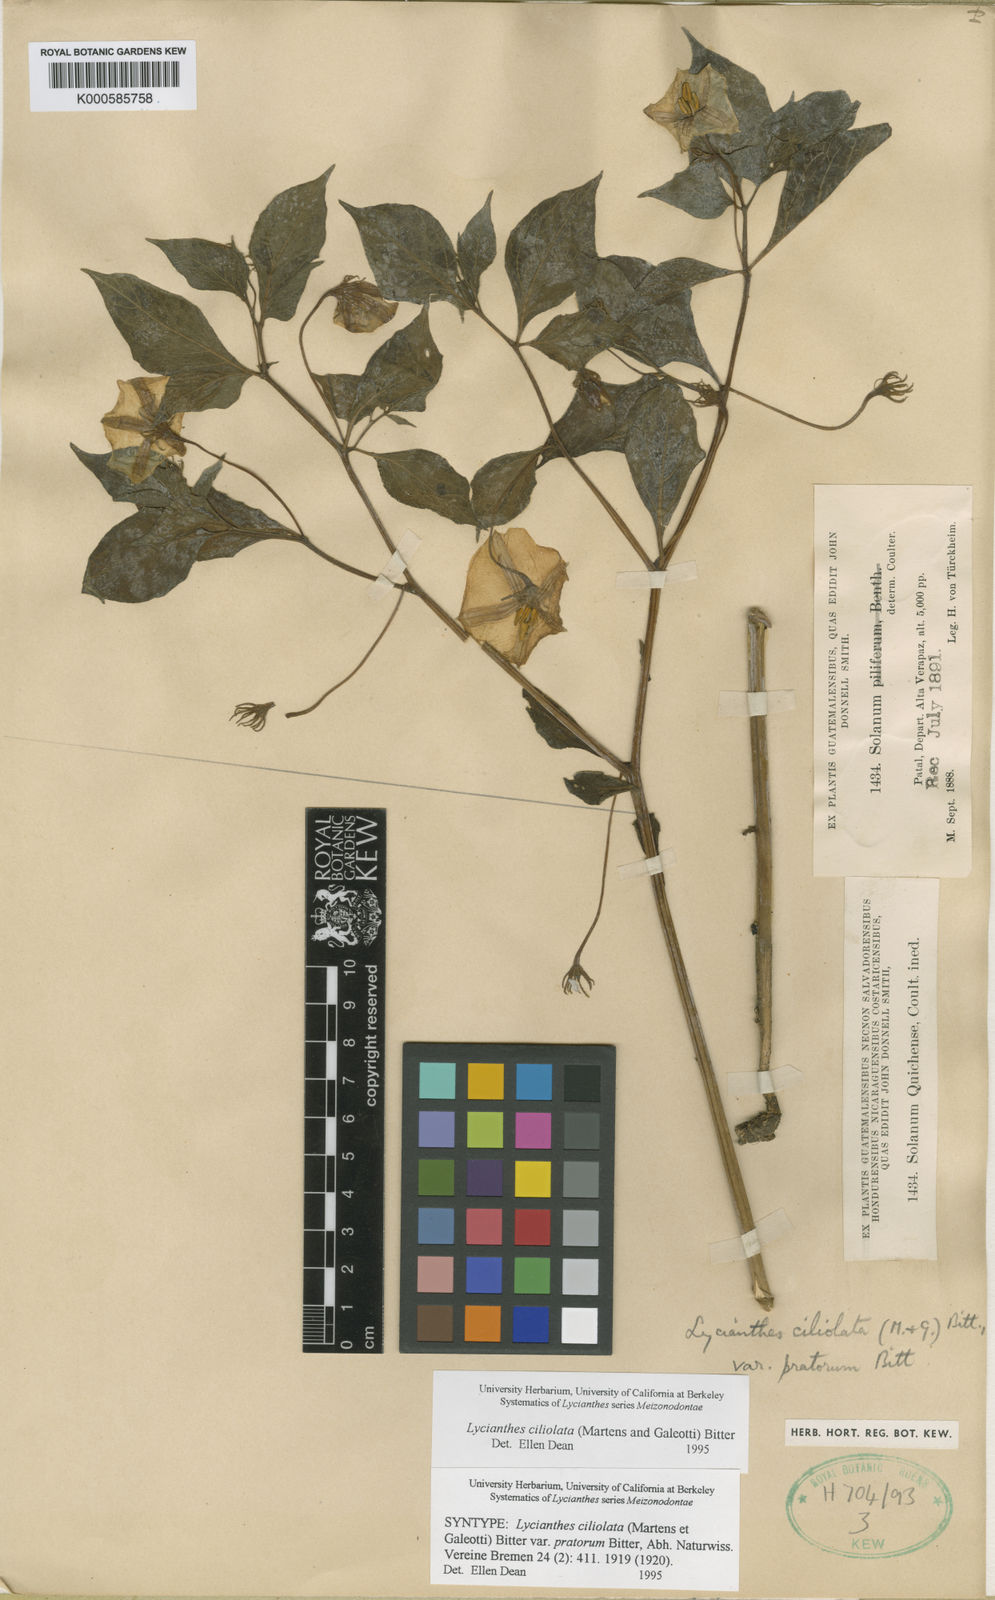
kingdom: Plantae
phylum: Tracheophyta
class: Magnoliopsida
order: Solanales
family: Solanaceae
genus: Lycianthes
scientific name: Lycianthes ciliolata
